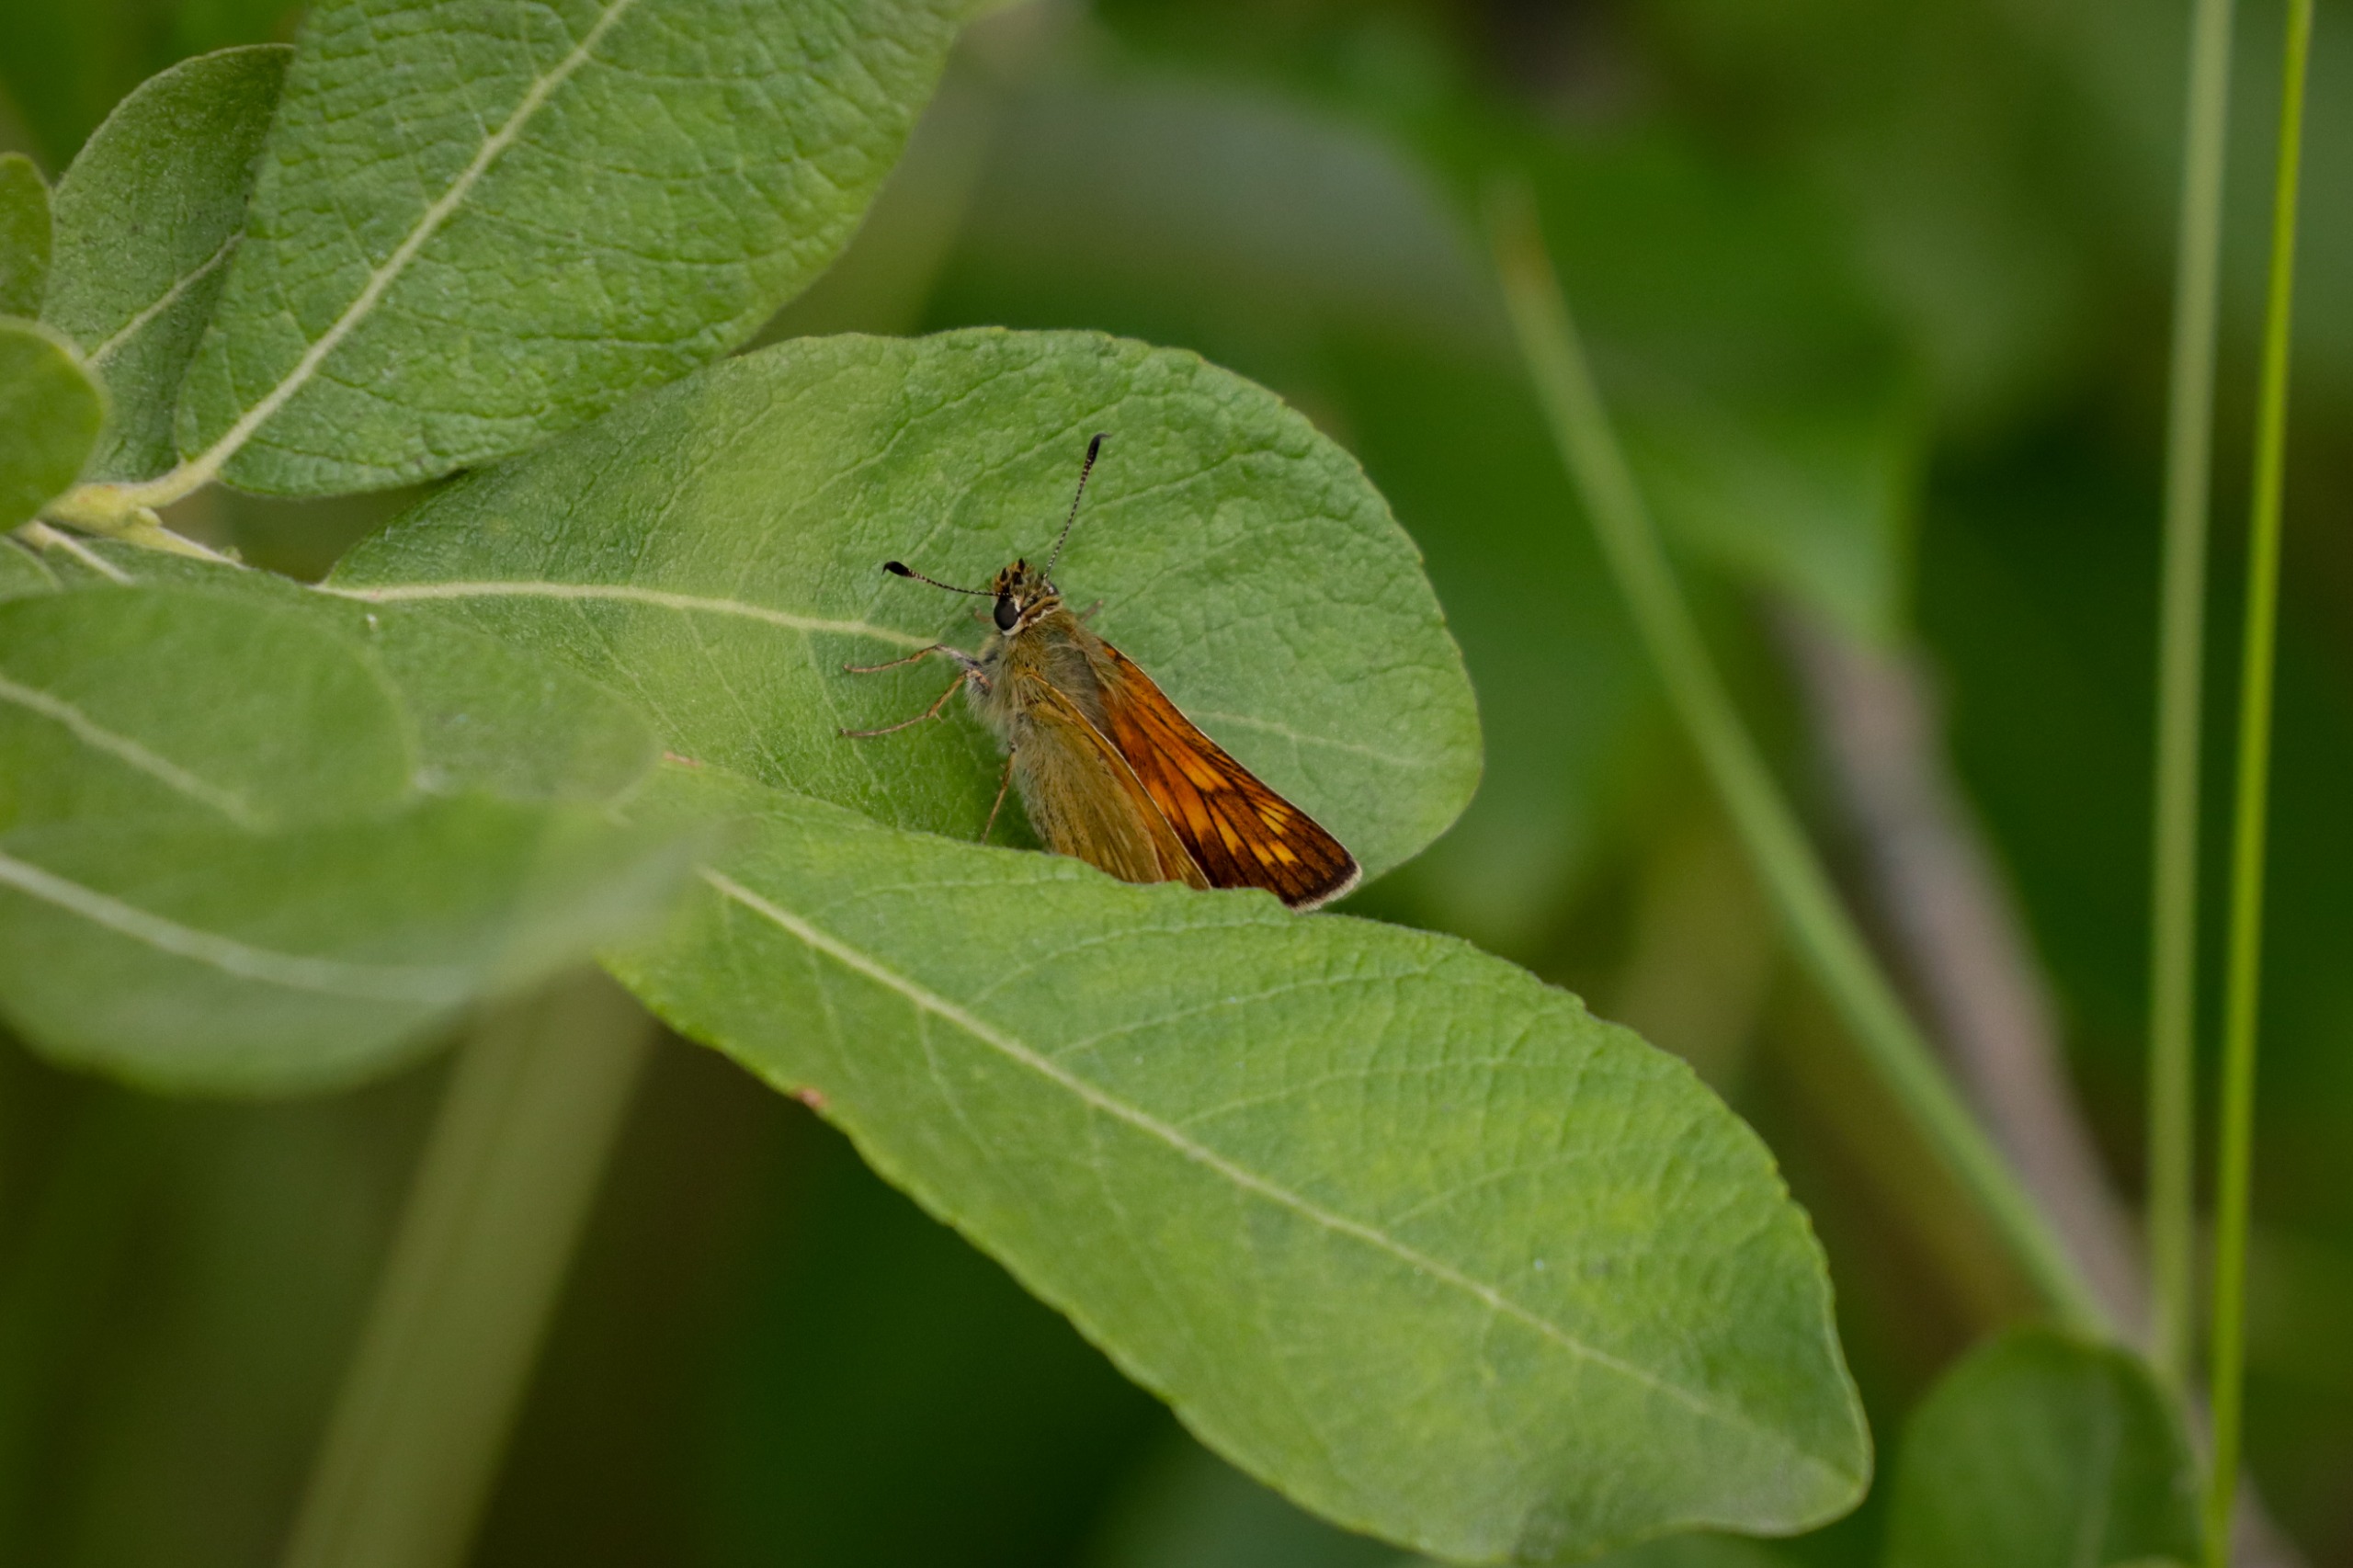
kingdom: Animalia
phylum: Arthropoda
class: Insecta
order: Lepidoptera
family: Hesperiidae
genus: Ochlodes
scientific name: Ochlodes venata
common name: Stor bredpande
